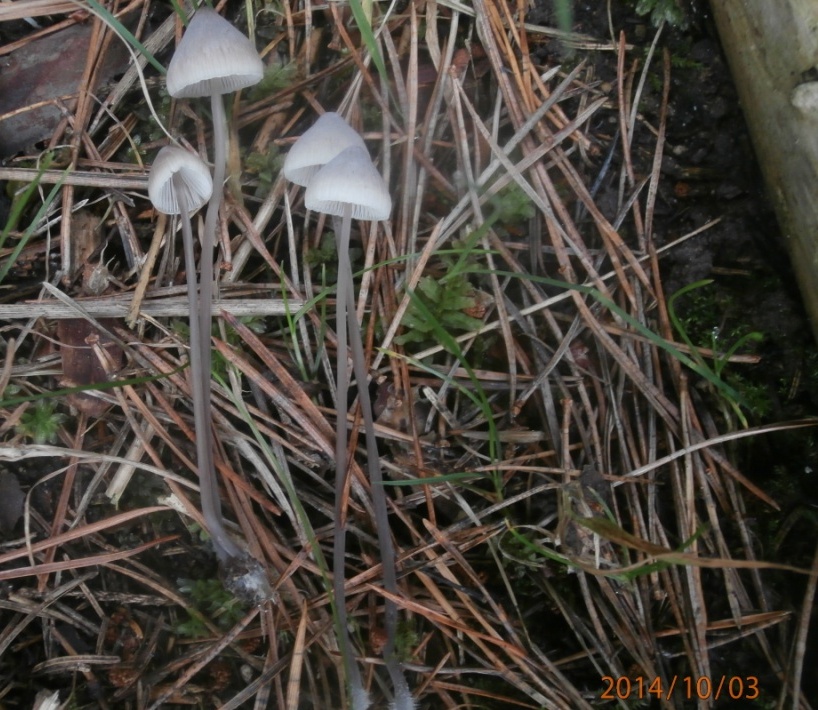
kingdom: Fungi
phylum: Basidiomycota
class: Agaricomycetes
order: Agaricales
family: Mycenaceae
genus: Mycena
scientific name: Mycena filopes
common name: jod-huesvamp
